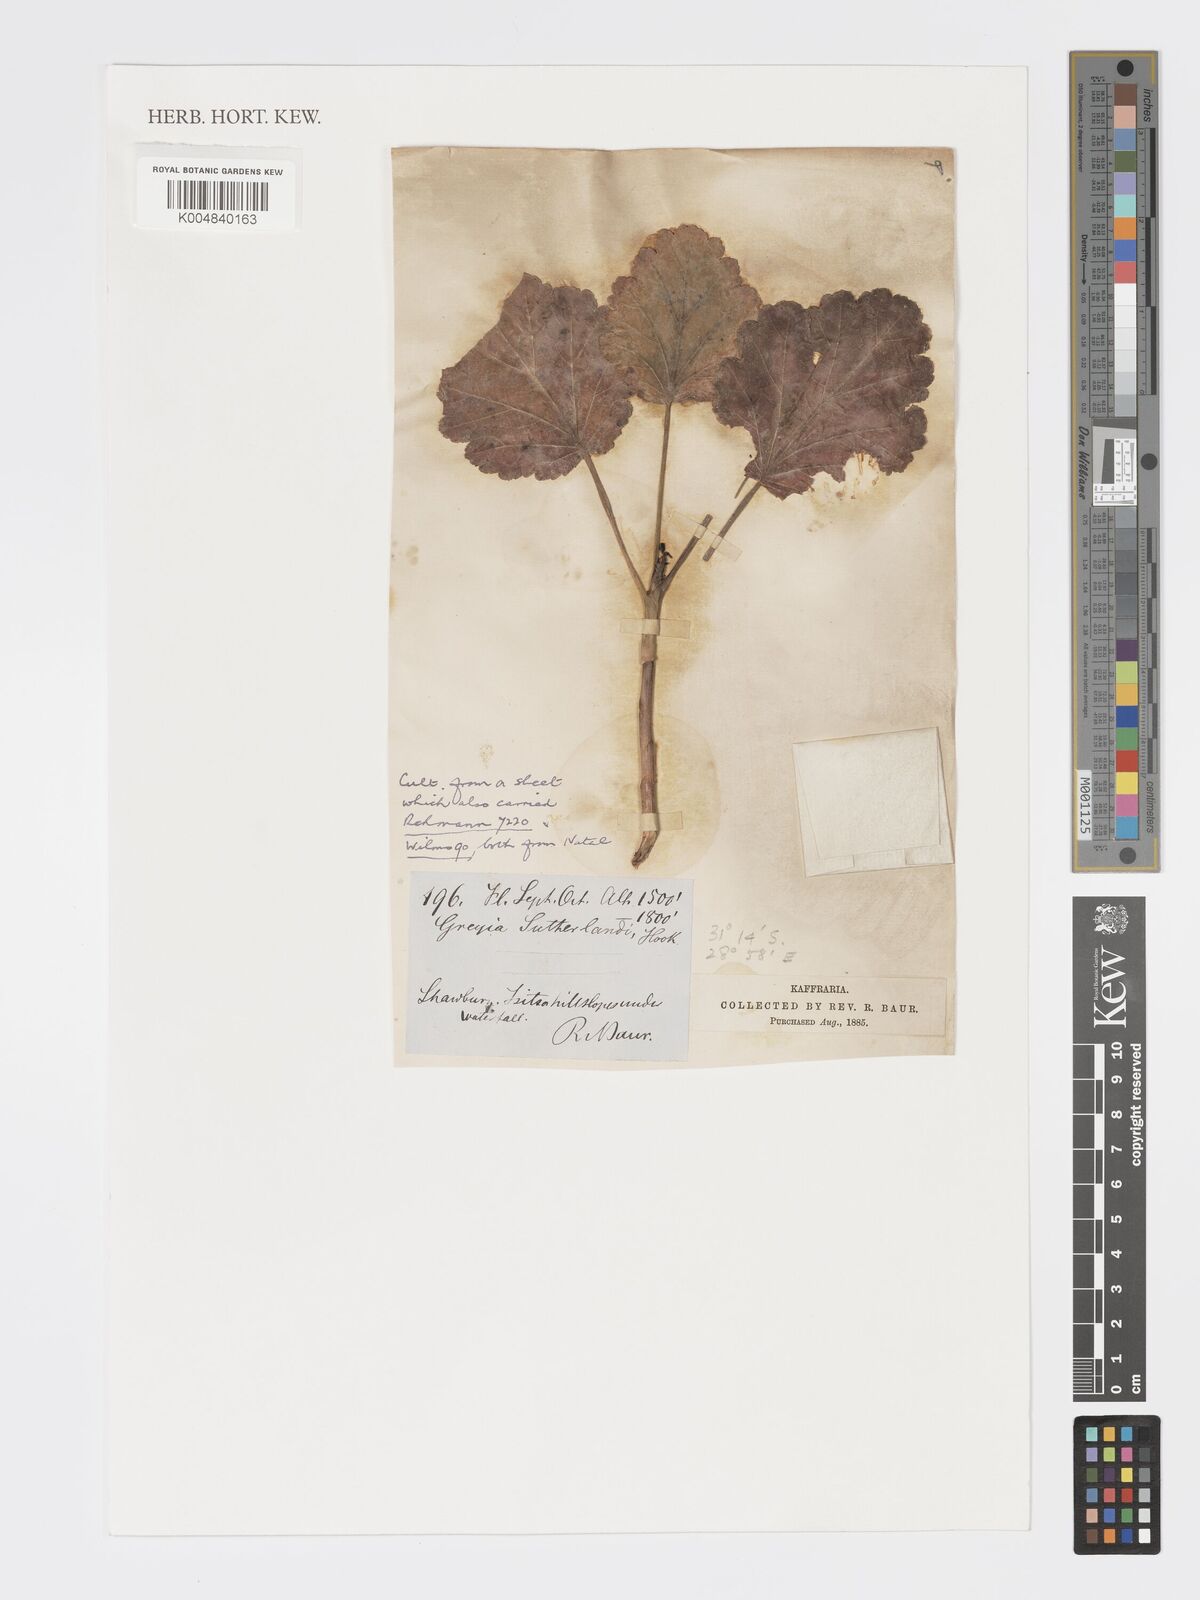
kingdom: Plantae
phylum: Tracheophyta
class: Magnoliopsida
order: Geraniales
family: Francoaceae
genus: Greyia
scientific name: Greyia sutherlandii
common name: Glossy bottlebrush
